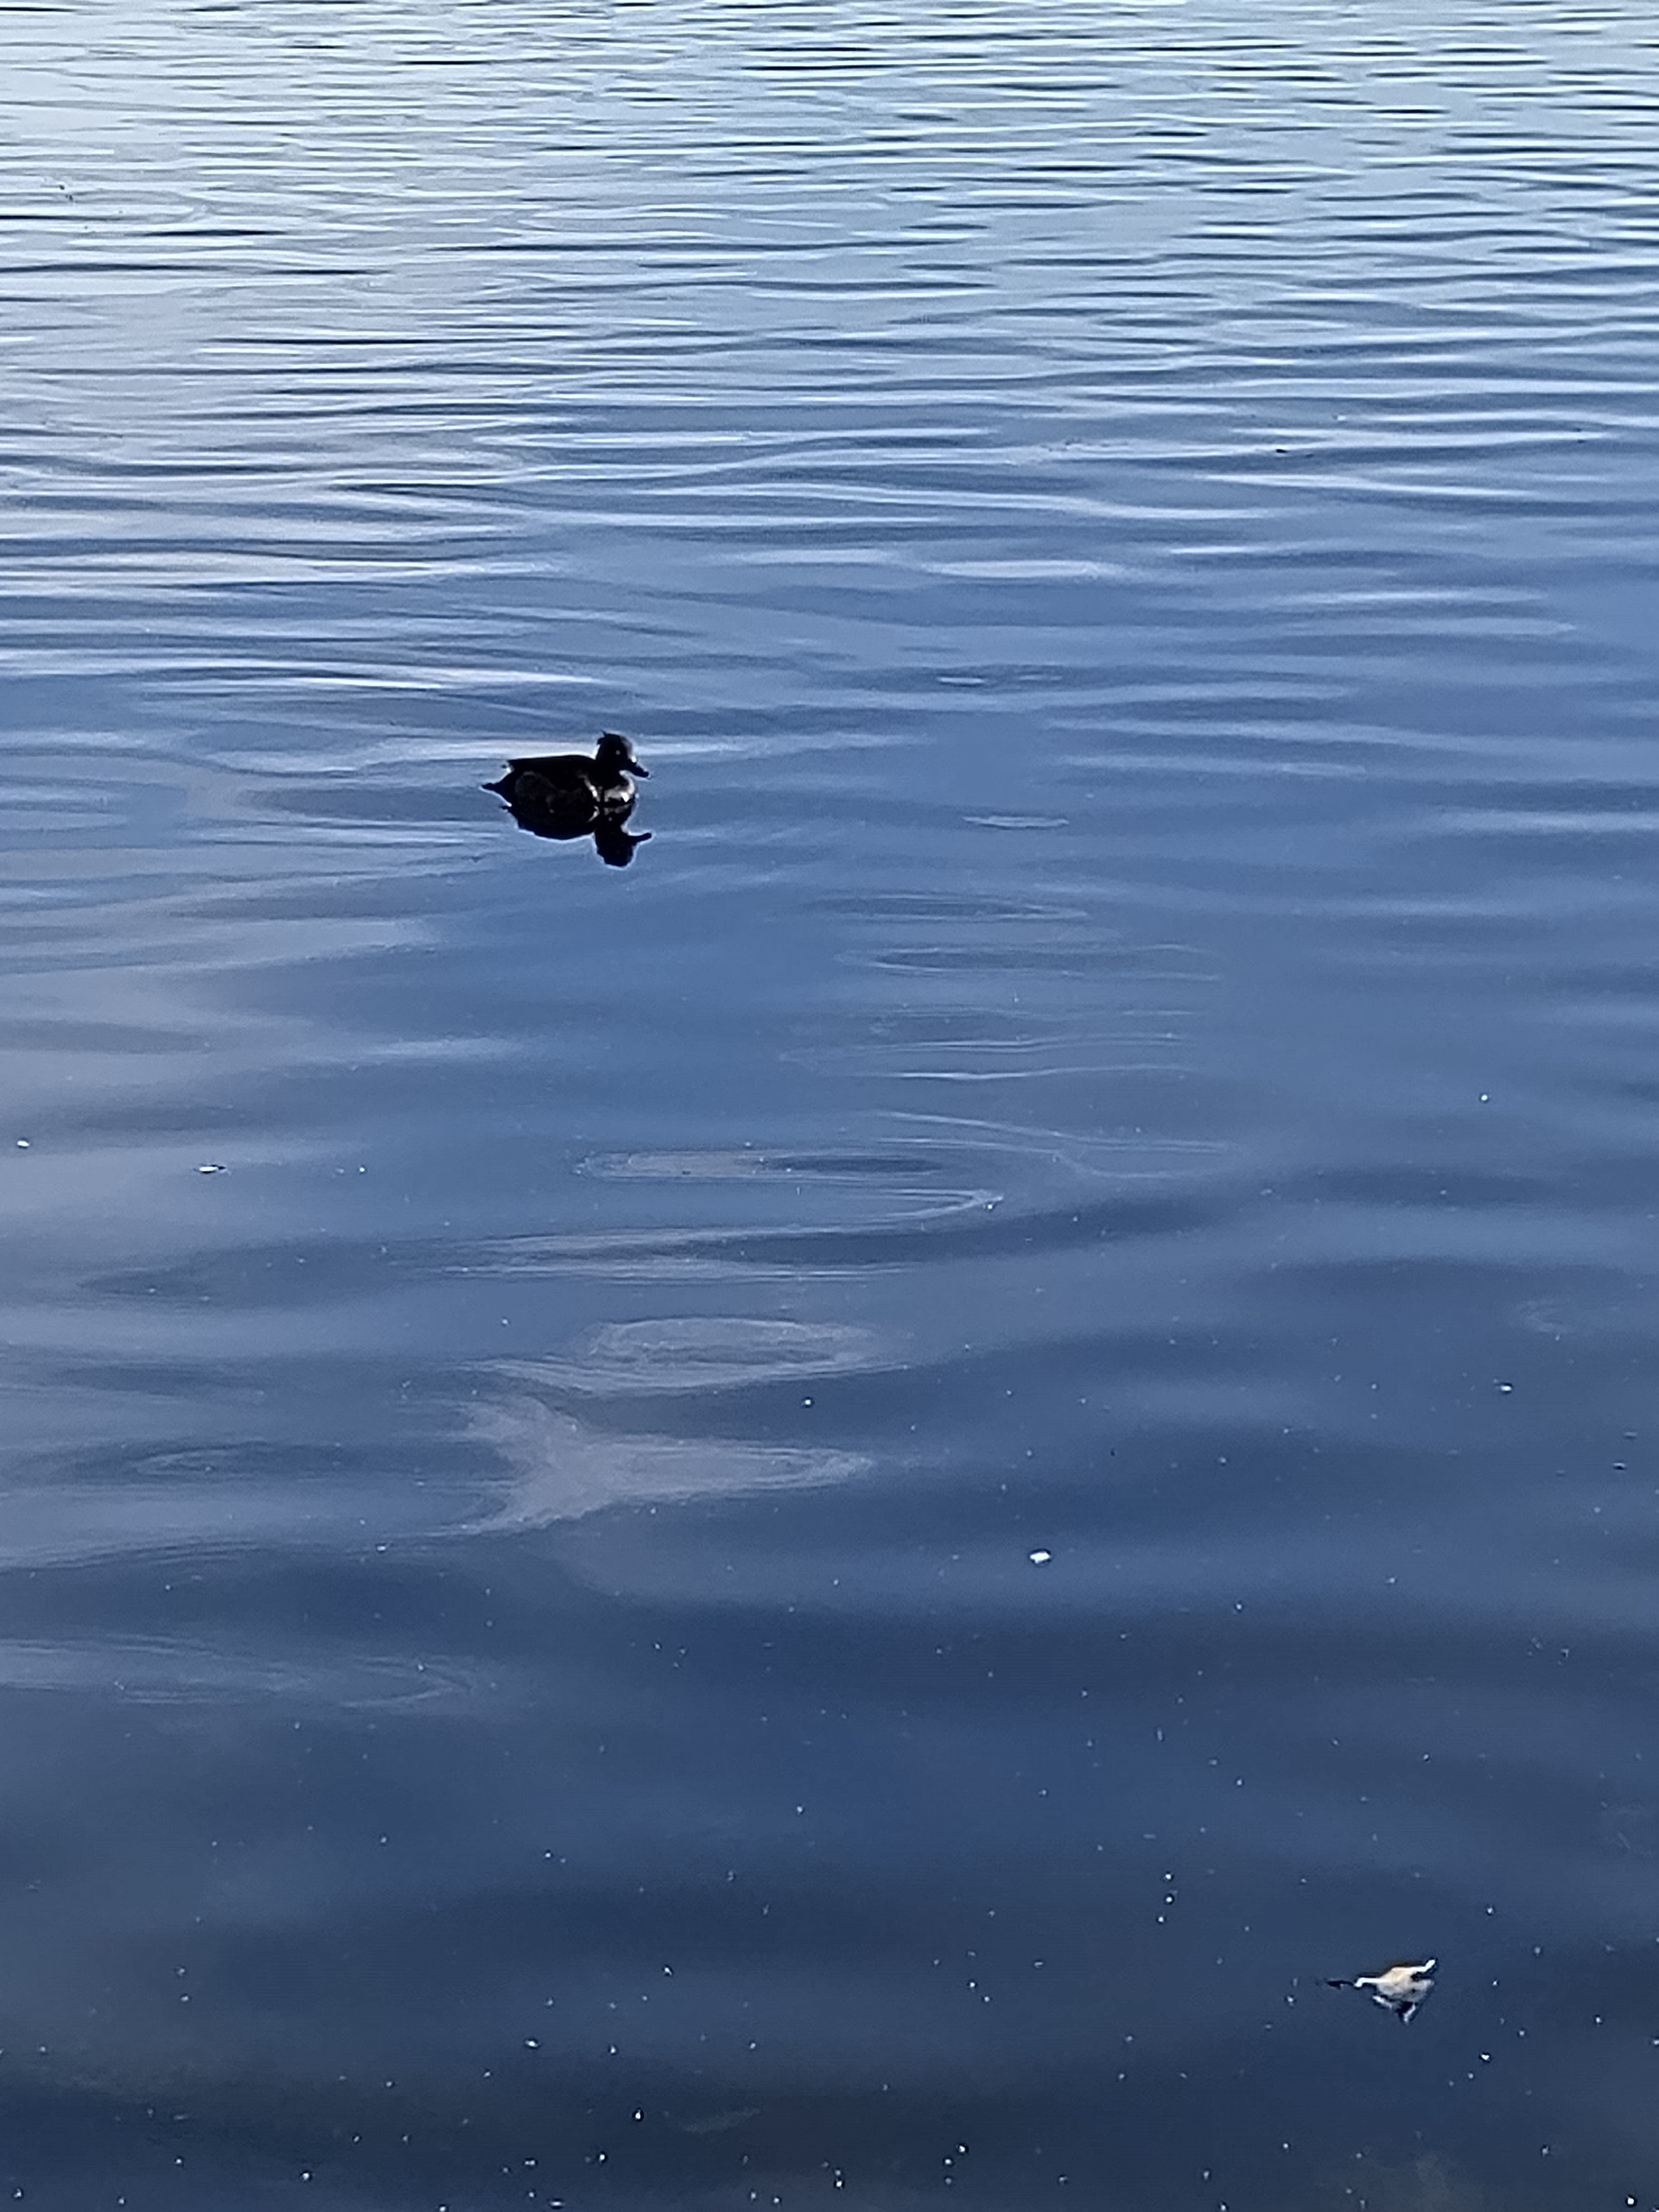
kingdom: Animalia
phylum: Chordata
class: Aves
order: Anseriformes
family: Anatidae
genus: Aythya
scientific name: Aythya fuligula
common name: Troldand
